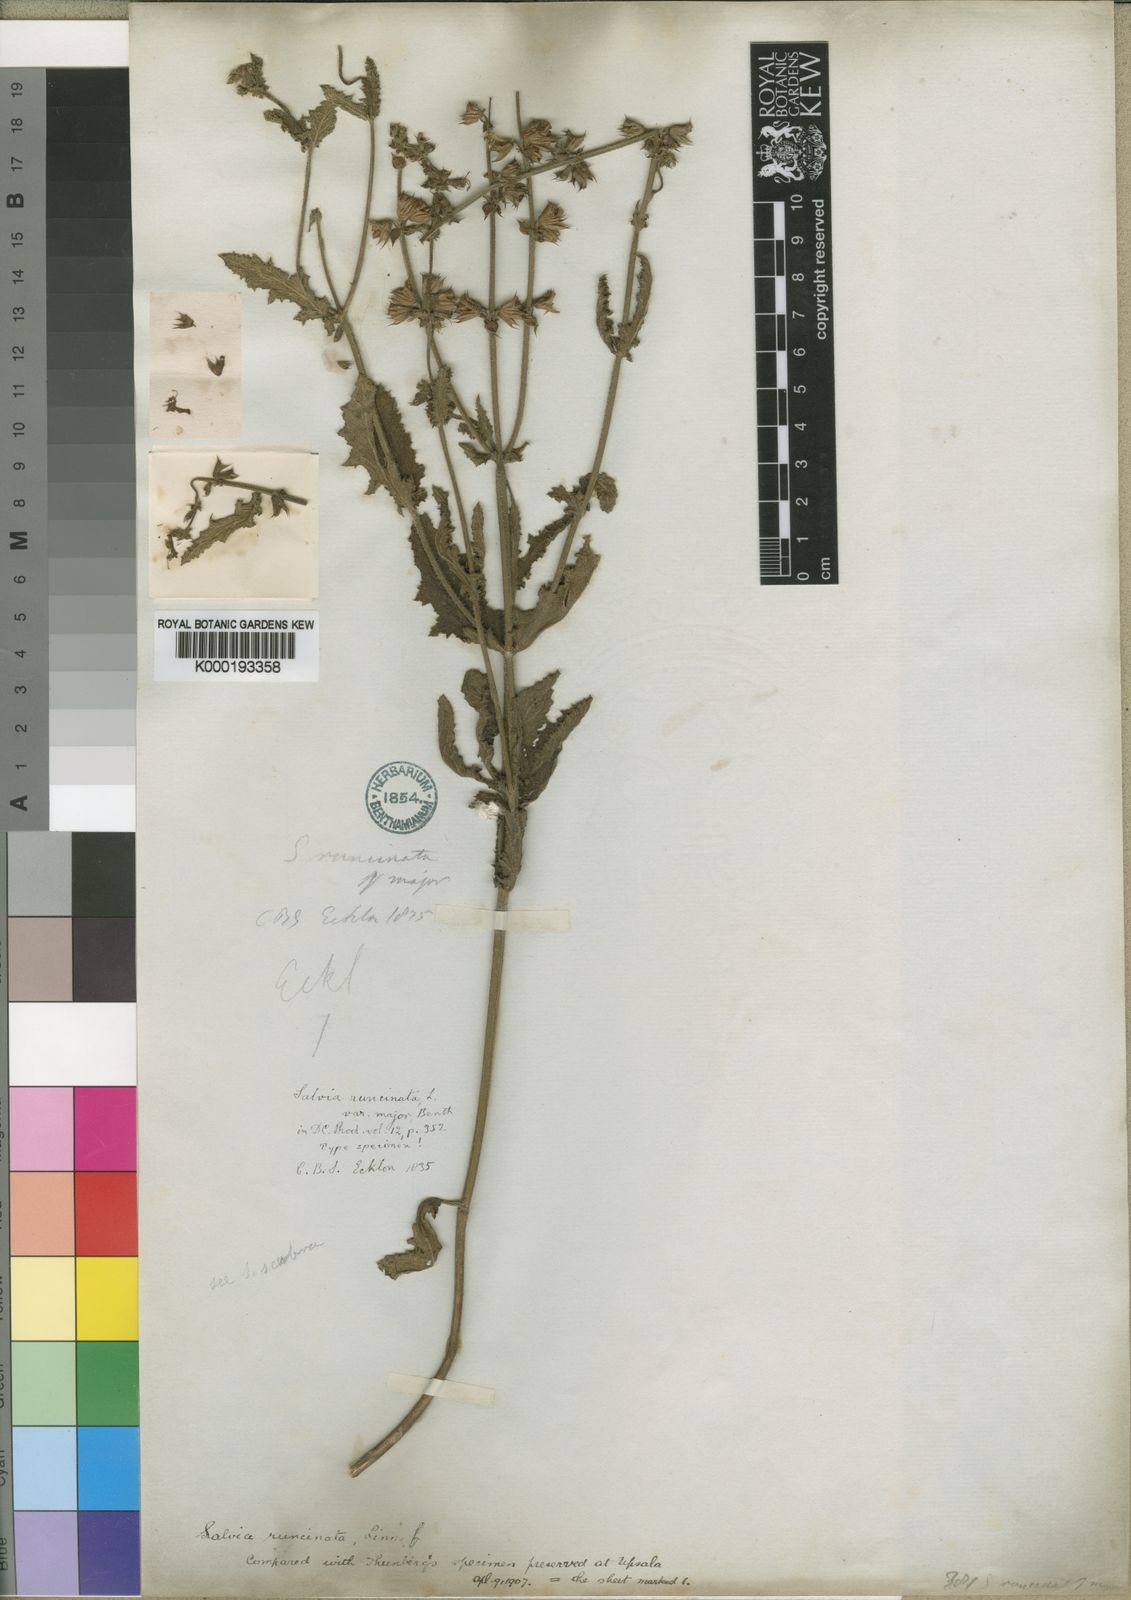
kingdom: Plantae
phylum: Tracheophyta
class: Magnoliopsida
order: Lamiales
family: Lamiaceae
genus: Salvia
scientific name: Salvia runcinata
